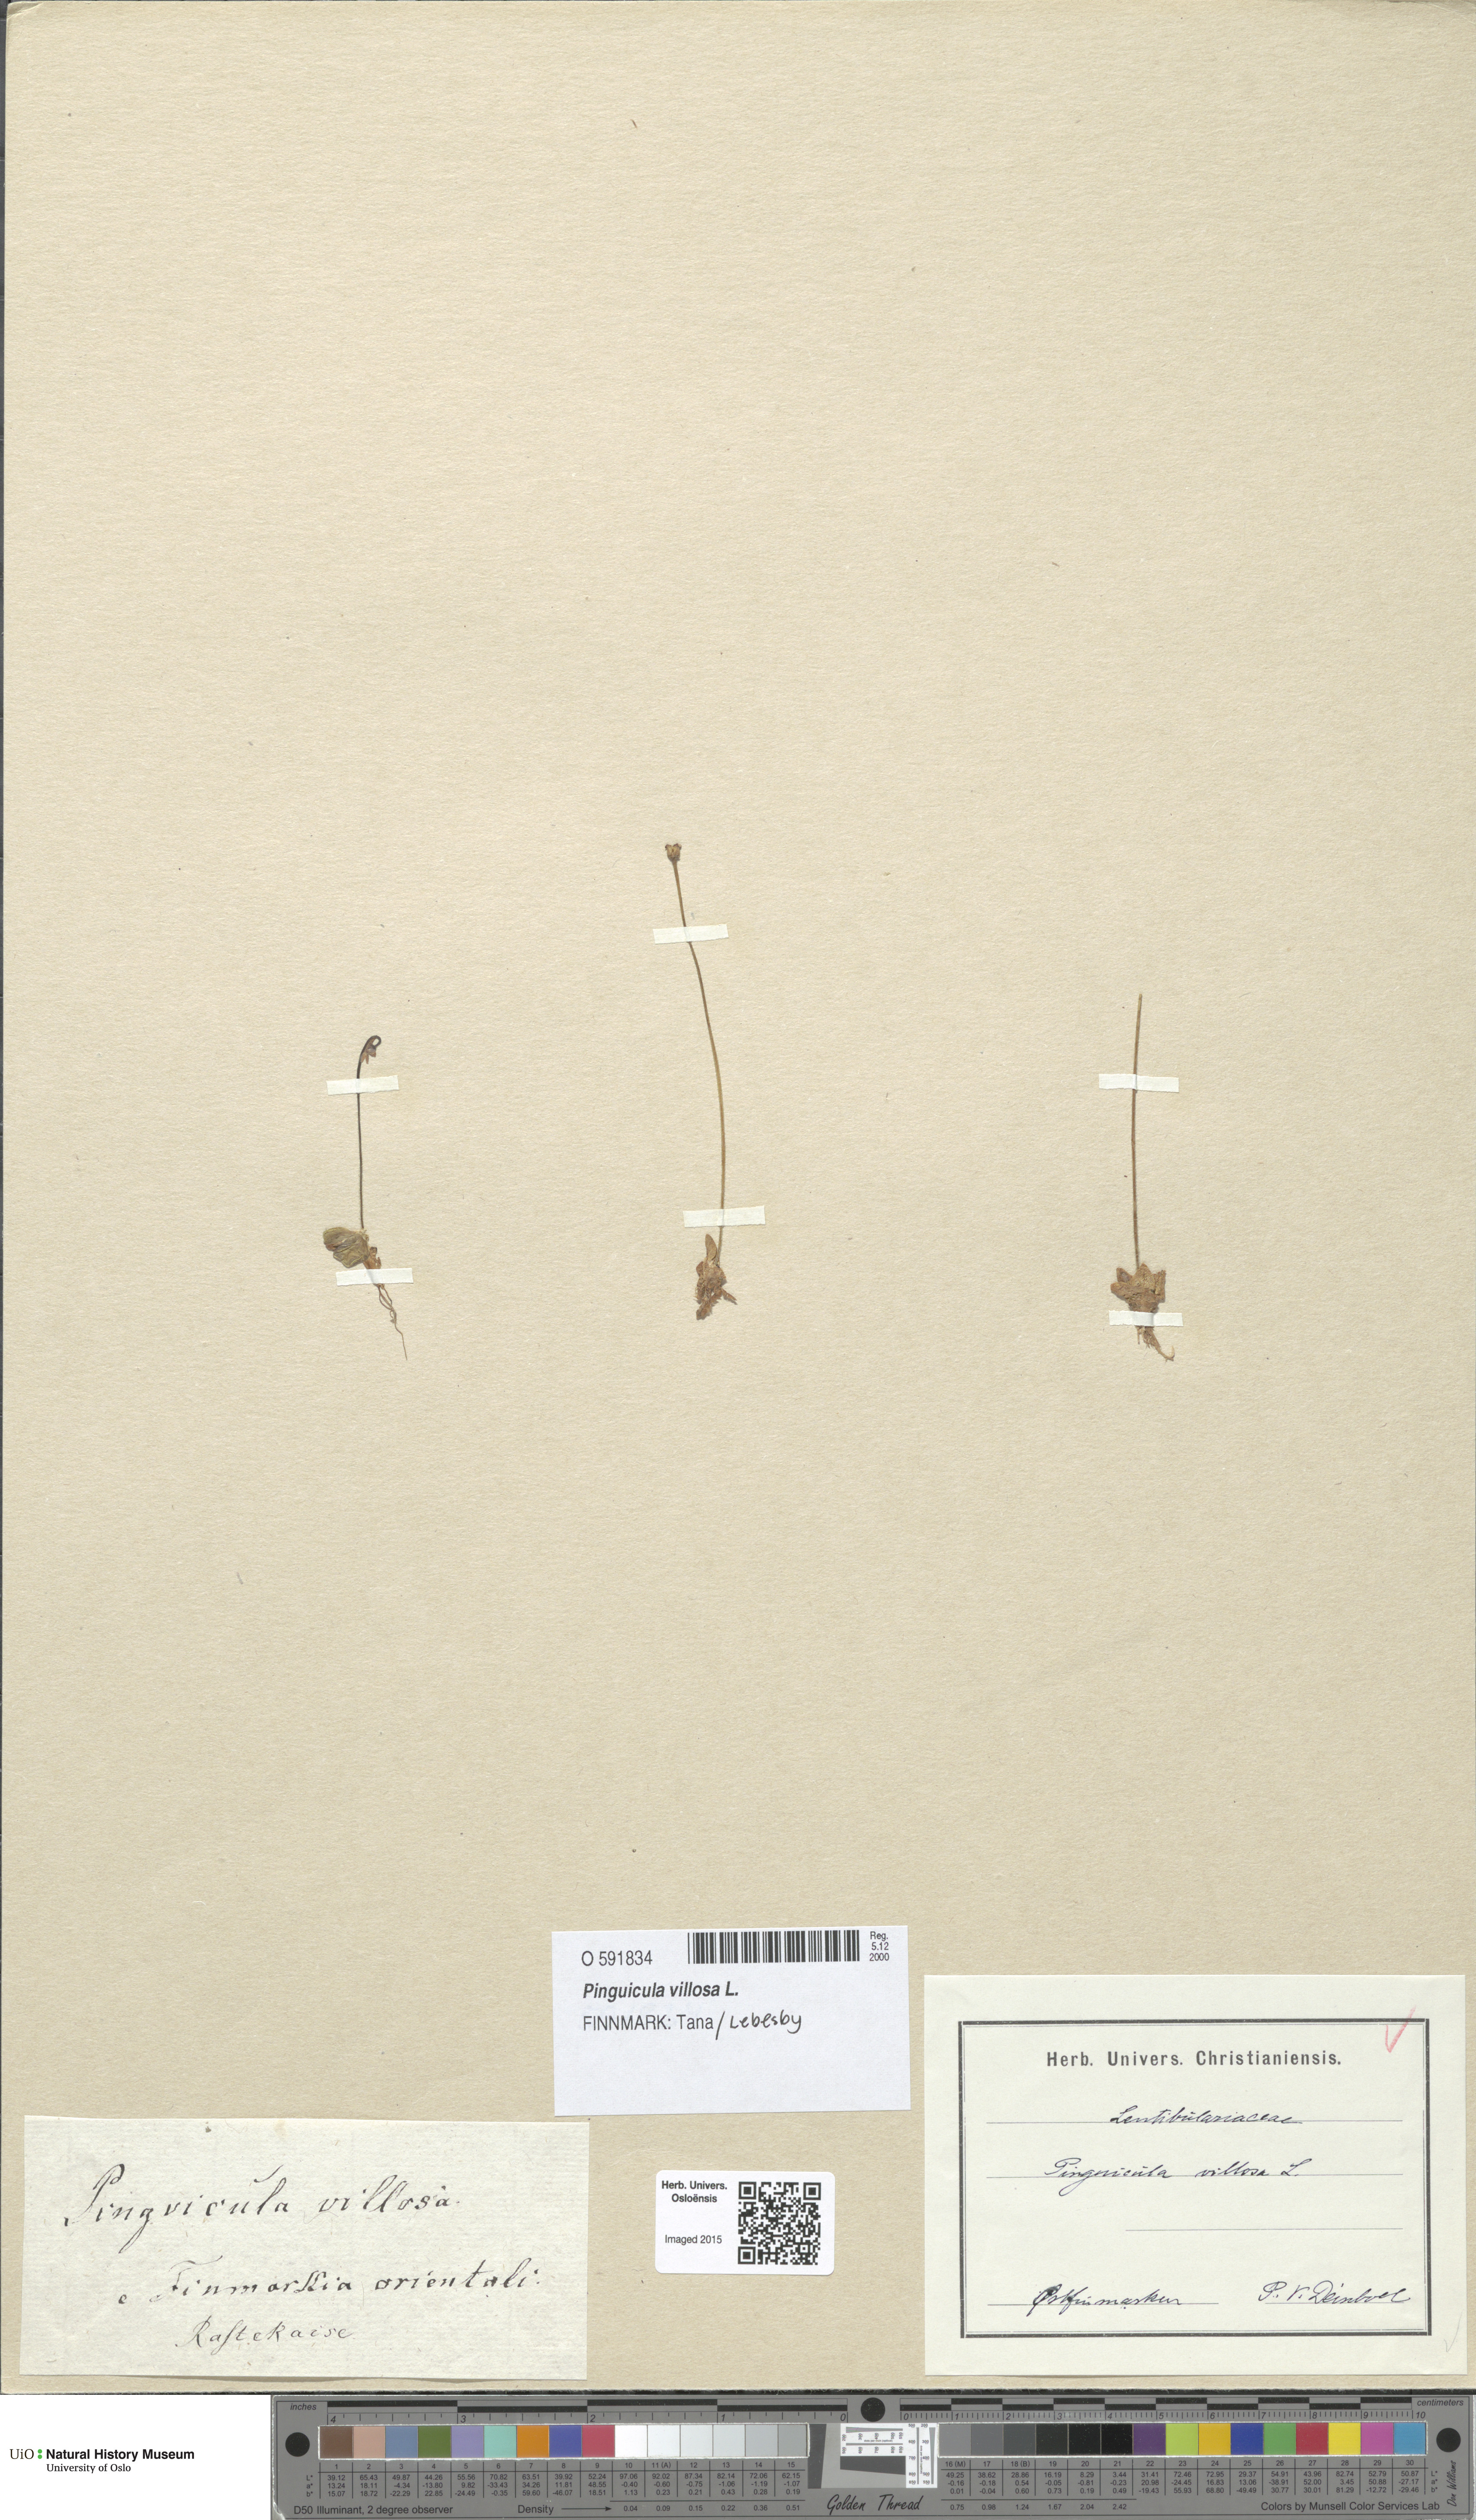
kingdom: Plantae
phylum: Tracheophyta
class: Magnoliopsida
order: Lamiales
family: Lentibulariaceae
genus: Pinguicula
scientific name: Pinguicula villosa
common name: Hairy butterwort
